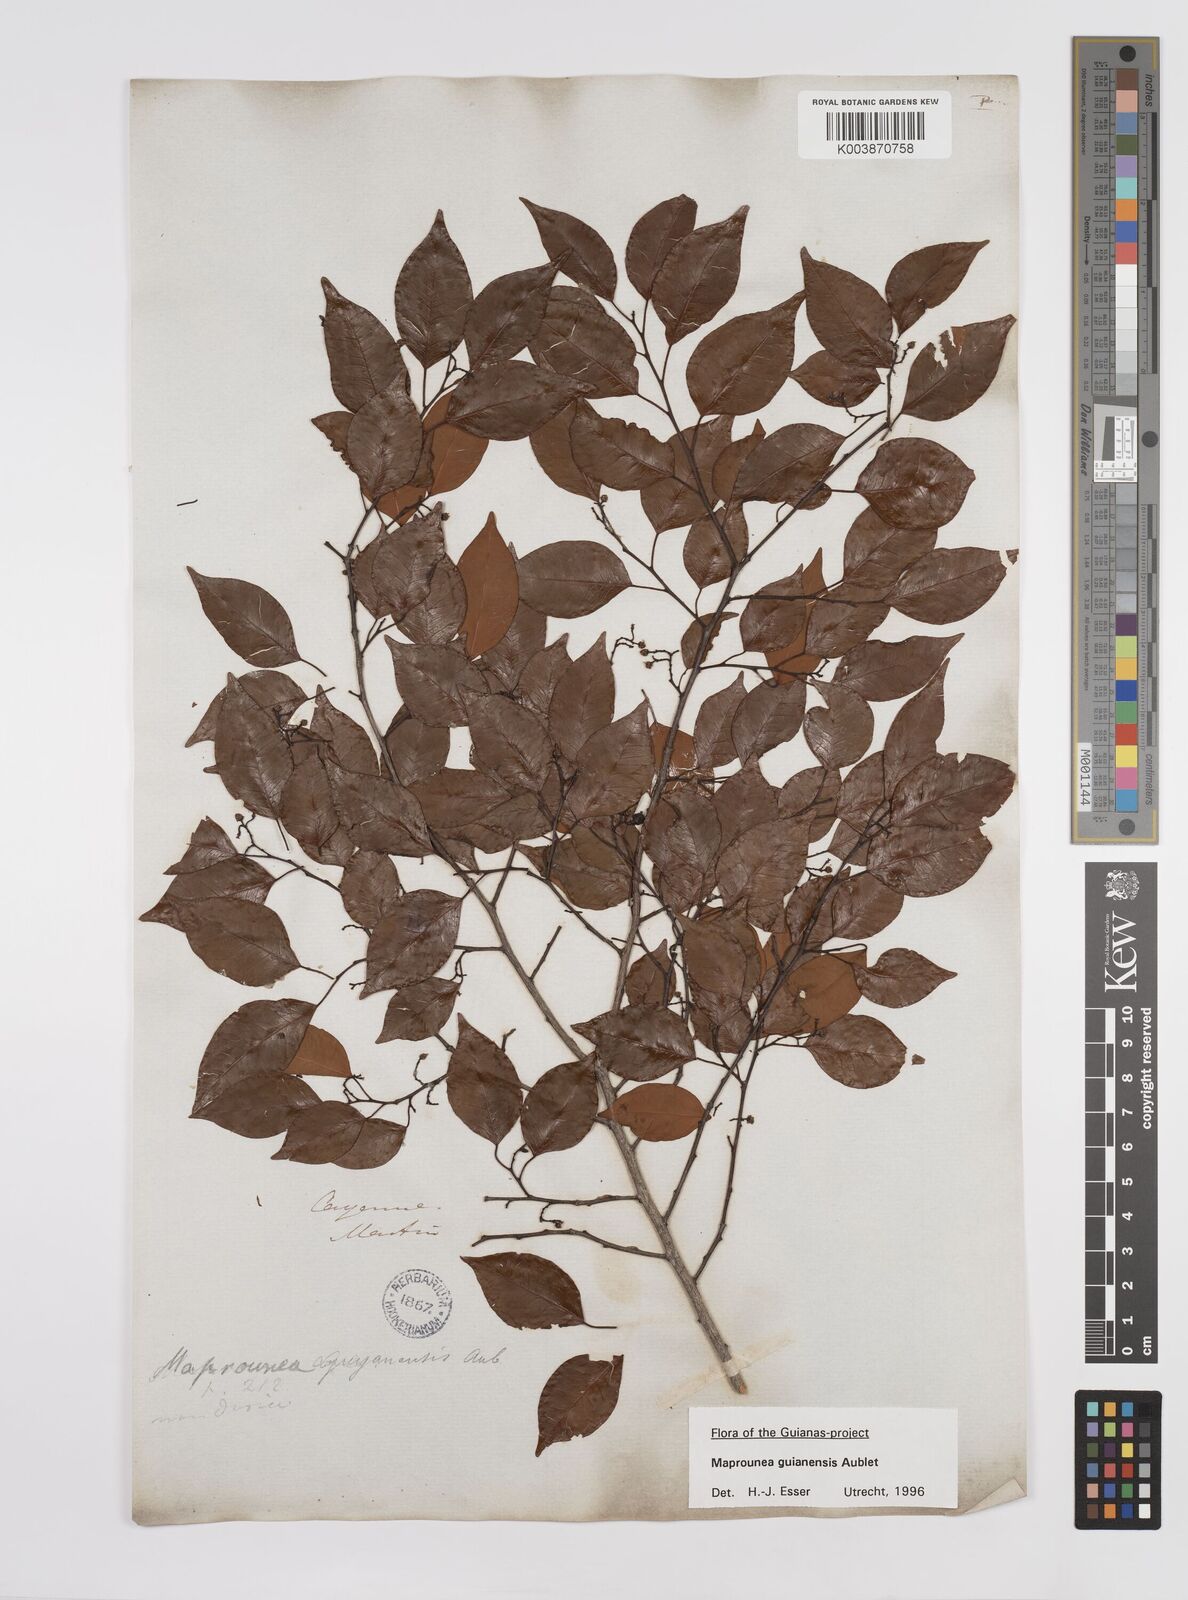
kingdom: Plantae
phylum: Tracheophyta
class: Magnoliopsida
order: Malpighiales
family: Euphorbiaceae
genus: Maprounea
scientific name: Maprounea guianensis
